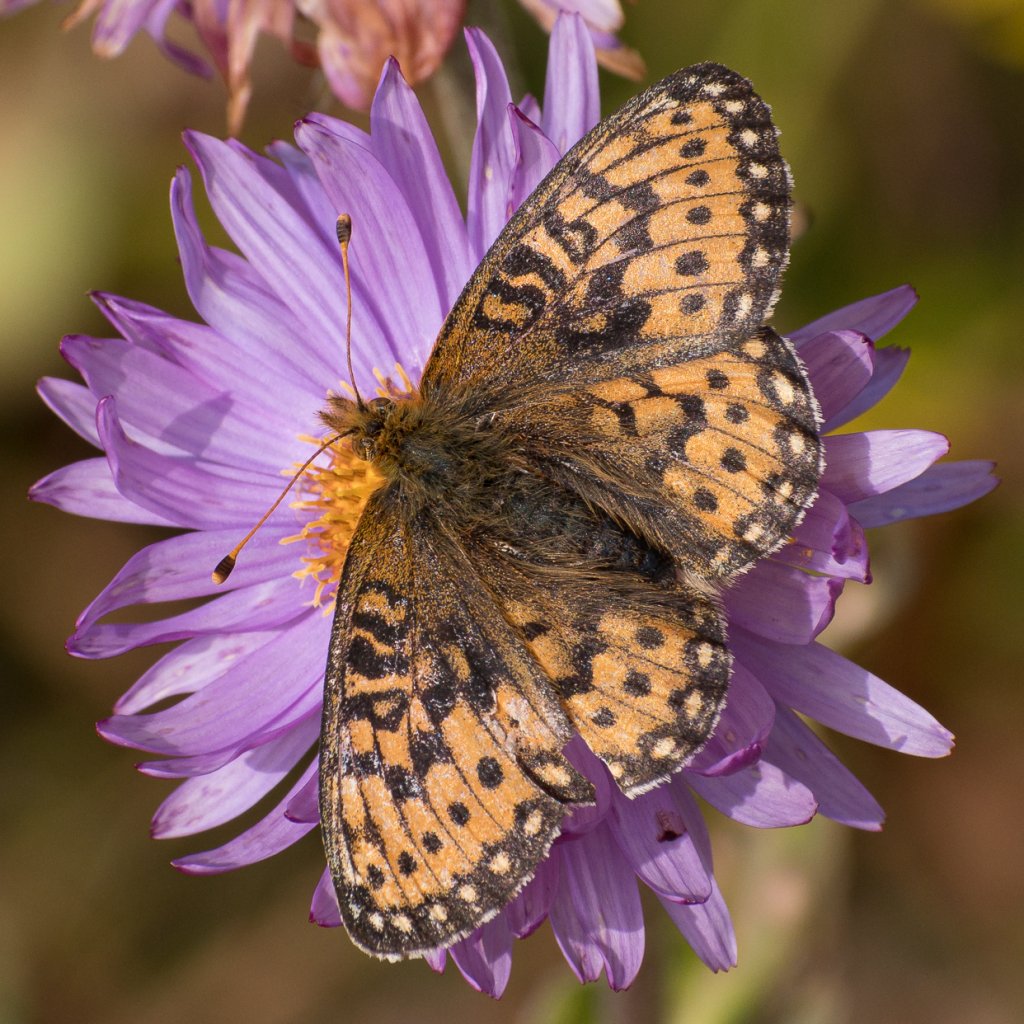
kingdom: Animalia
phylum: Arthropoda
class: Insecta
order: Lepidoptera
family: Nymphalidae
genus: Speyeria
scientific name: Speyeria mormonia
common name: Mormon Fritillary
